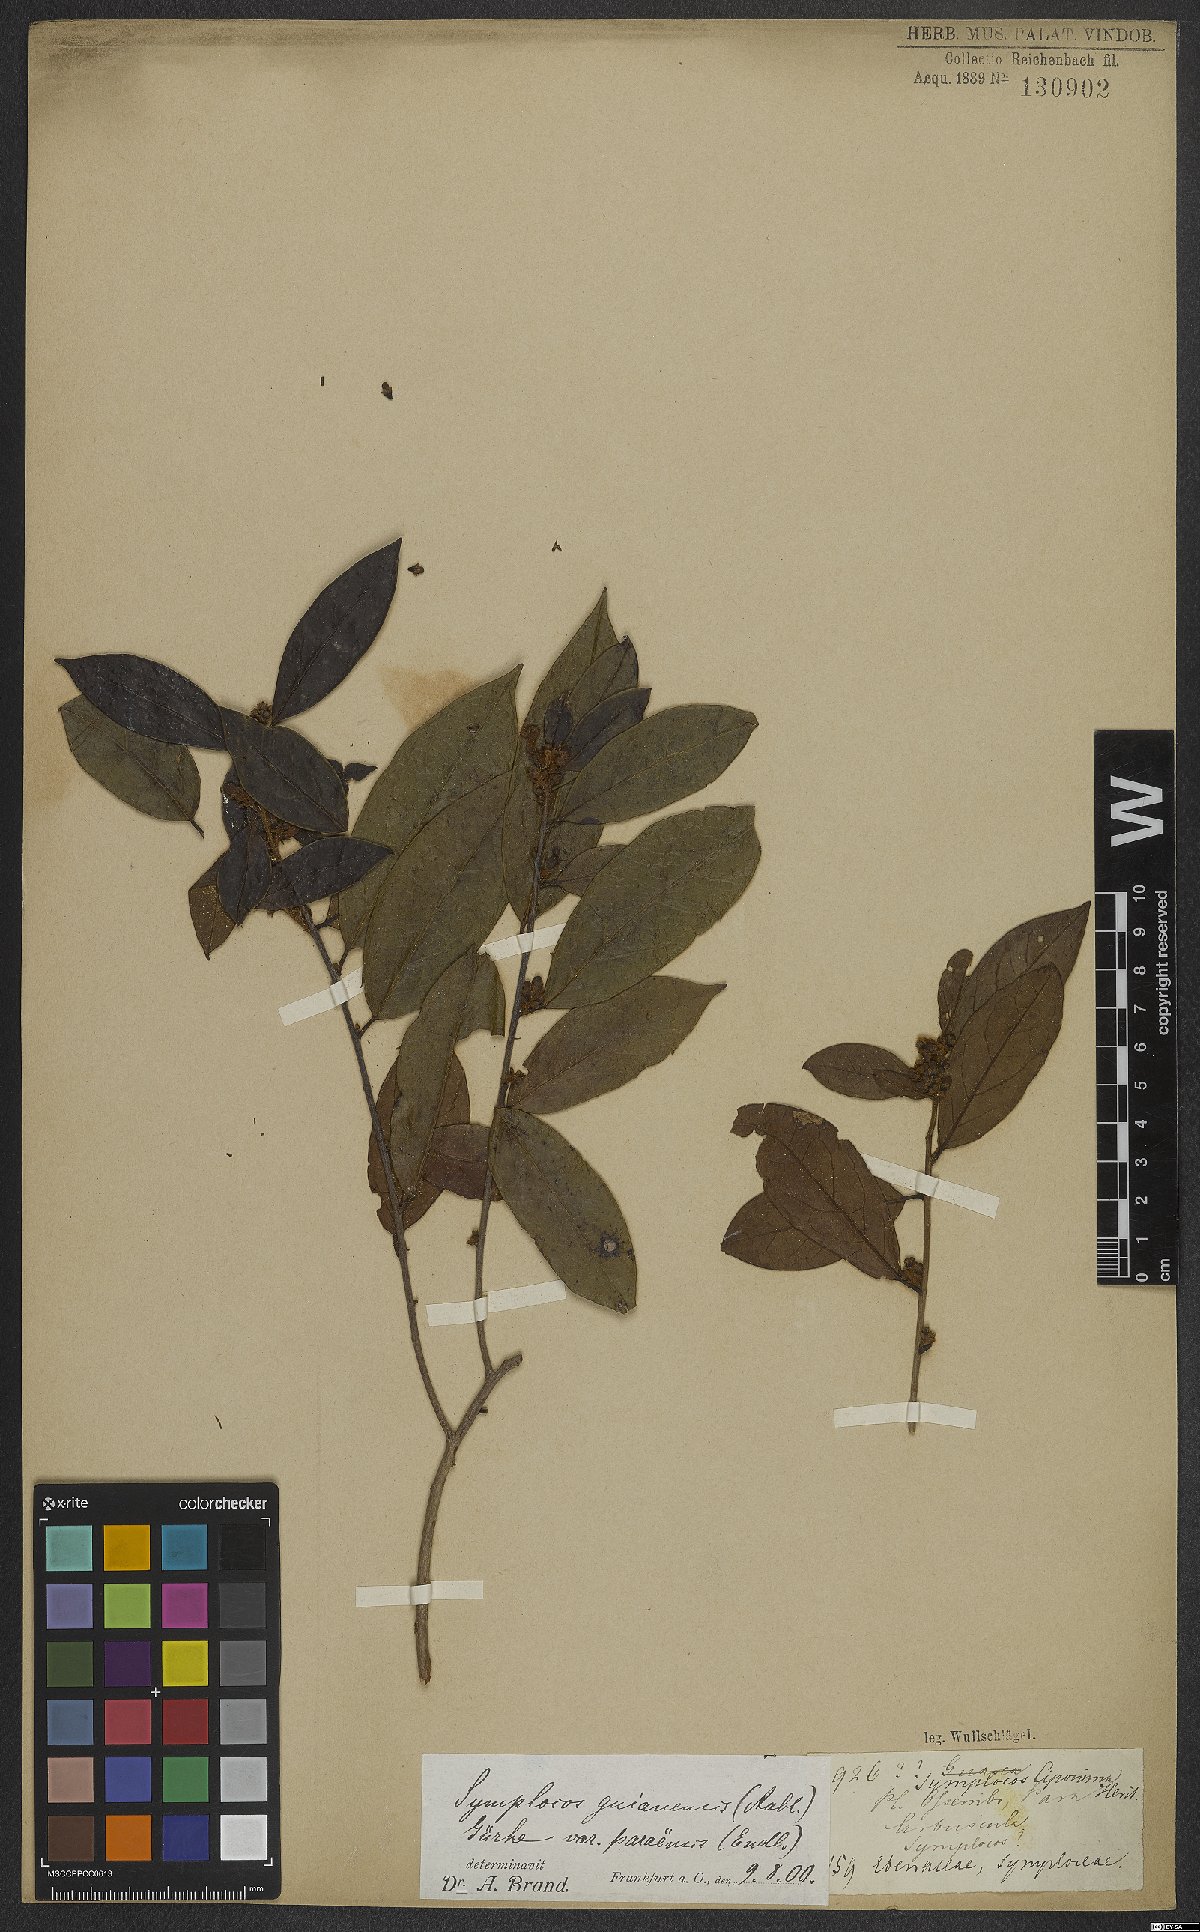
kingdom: Plantae
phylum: Tracheophyta
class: Magnoliopsida
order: Ericales
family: Symplocaceae
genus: Symplocos
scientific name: Symplocos guianensis
